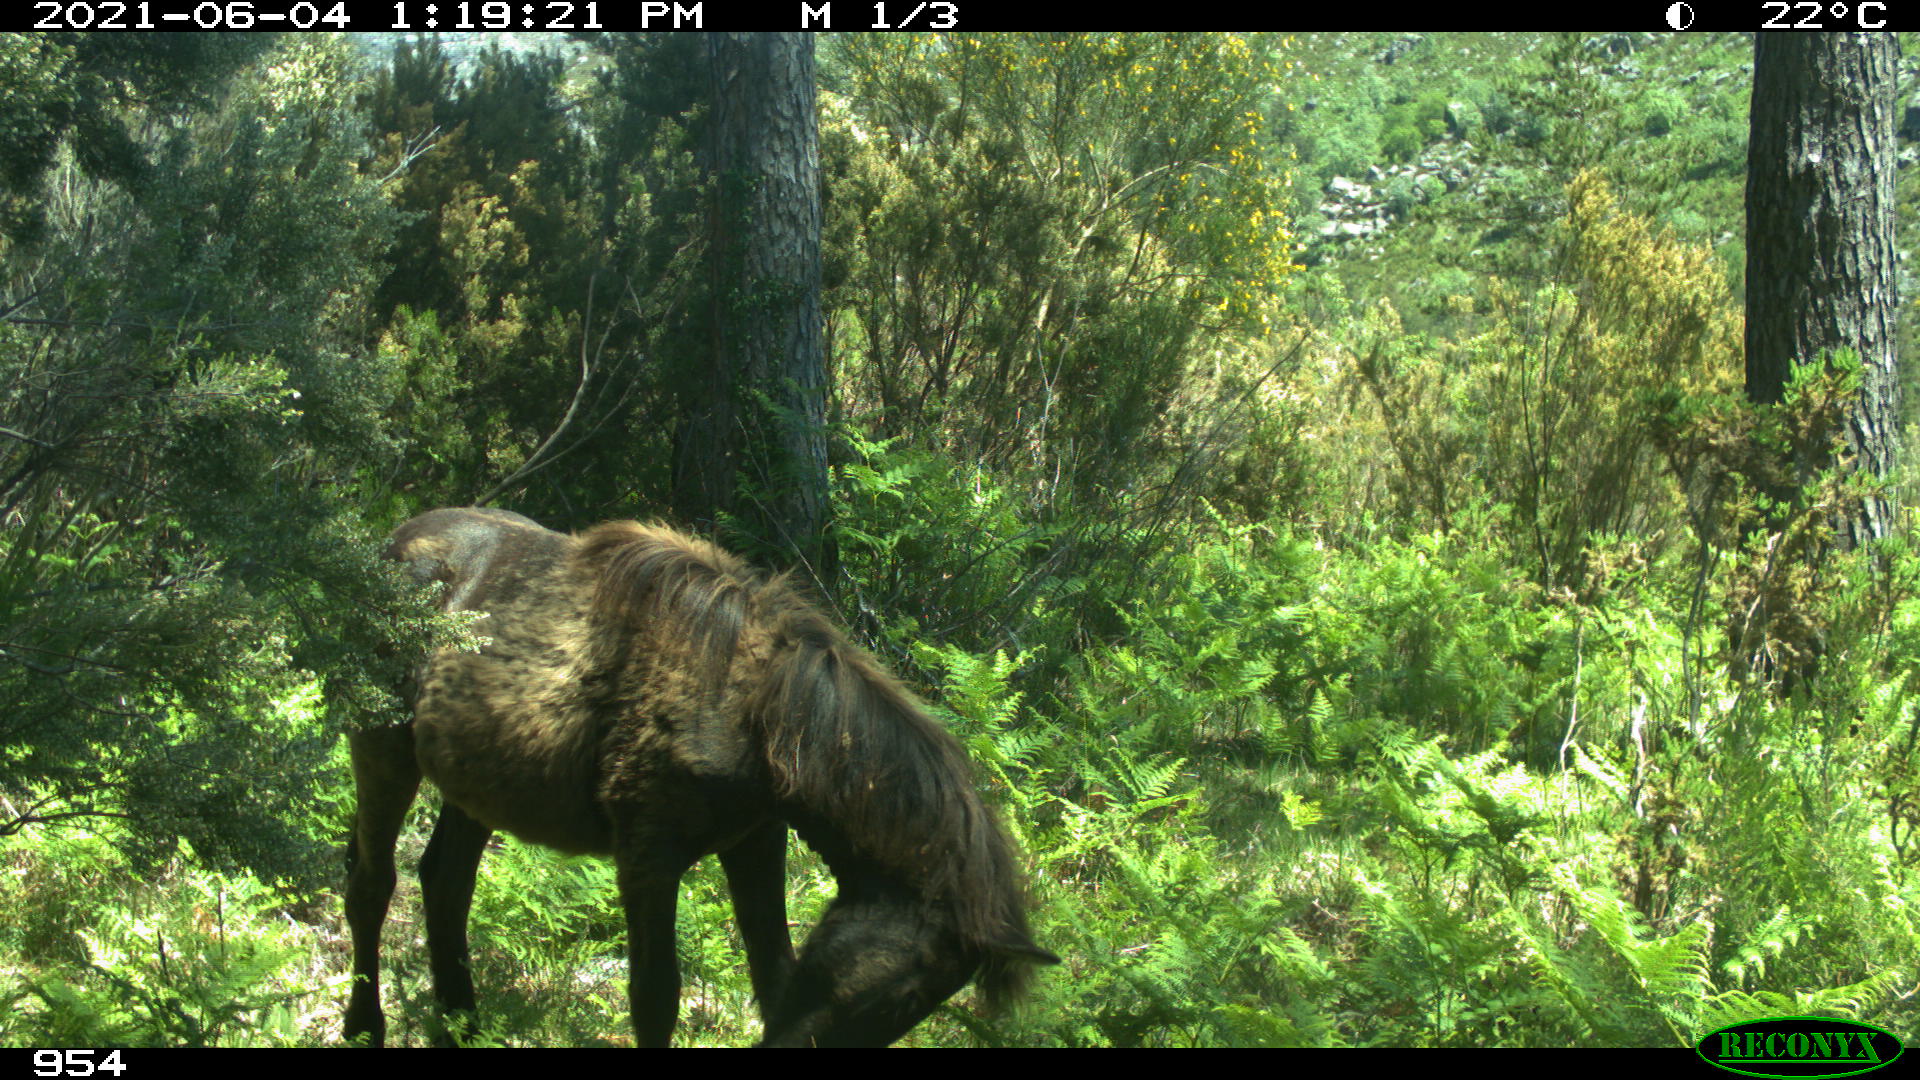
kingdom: Animalia
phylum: Chordata
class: Mammalia
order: Perissodactyla
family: Equidae
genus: Equus
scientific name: Equus caballus
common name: Horse
